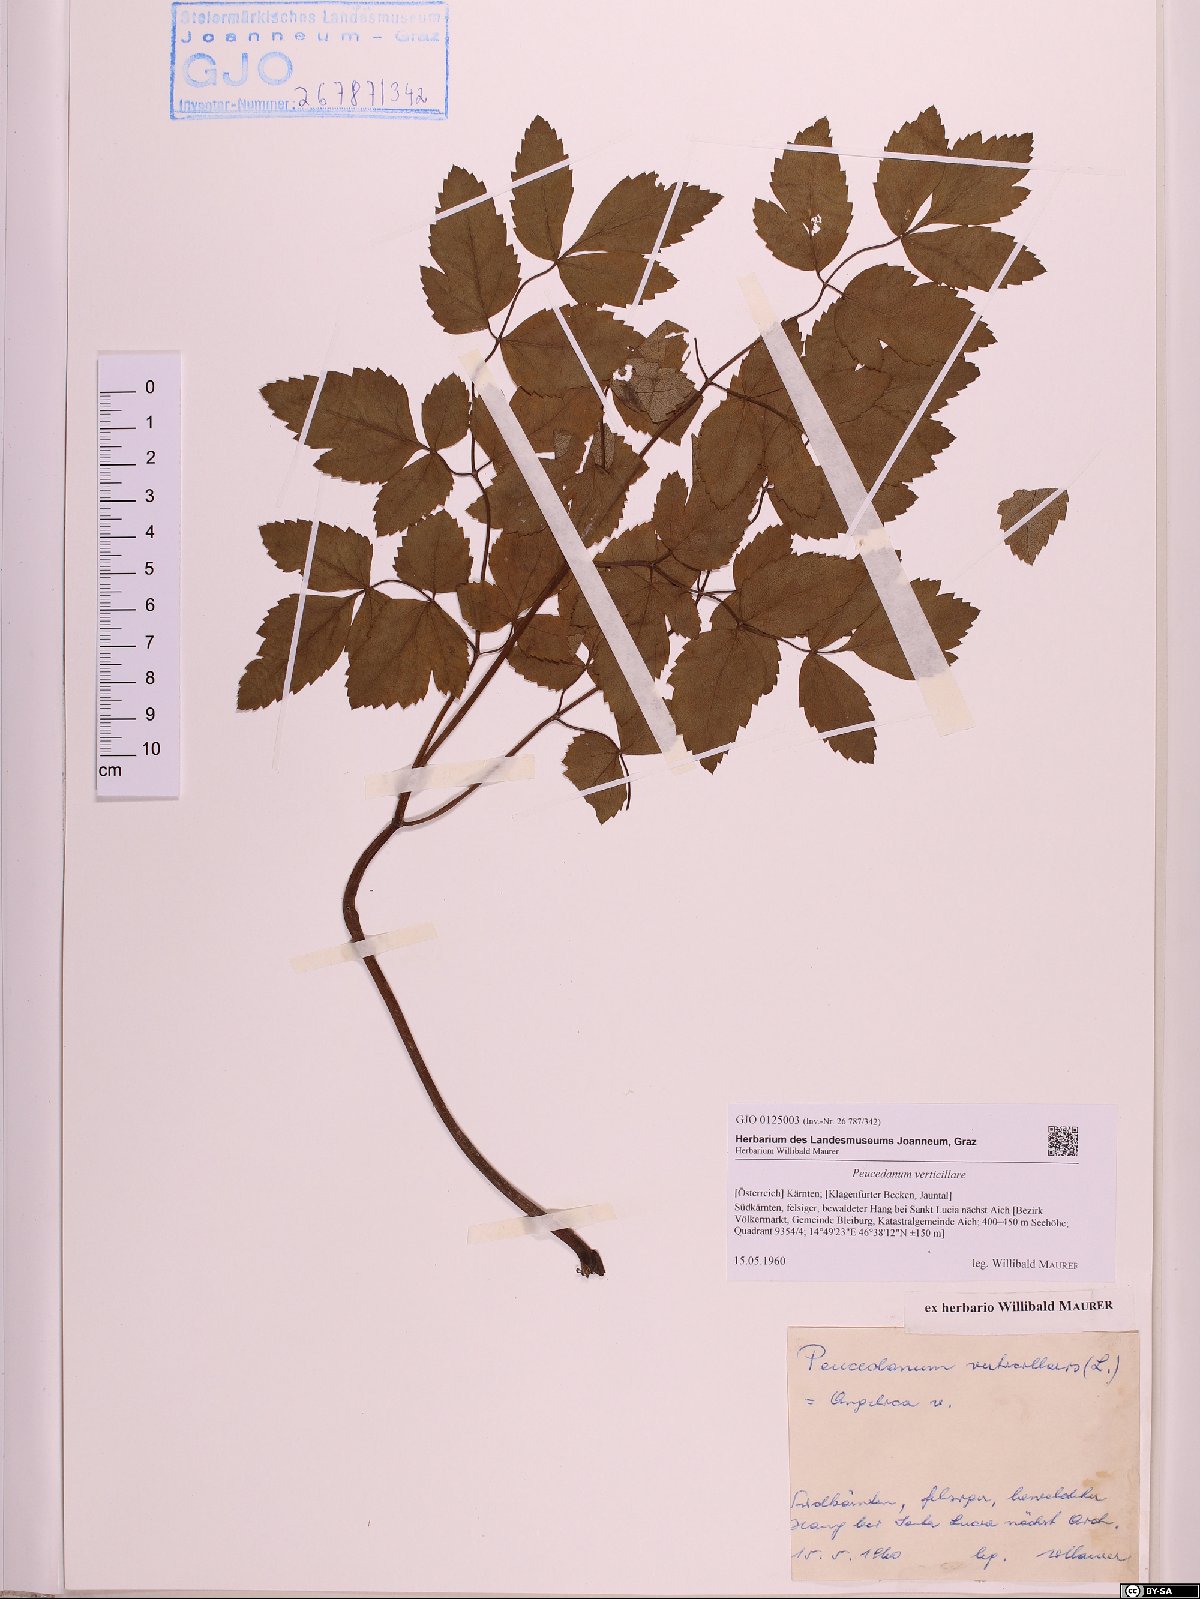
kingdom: Plantae
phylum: Tracheophyta
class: Magnoliopsida
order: Apiales
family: Apiaceae
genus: Tommasinia
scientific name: Tommasinia altissima
